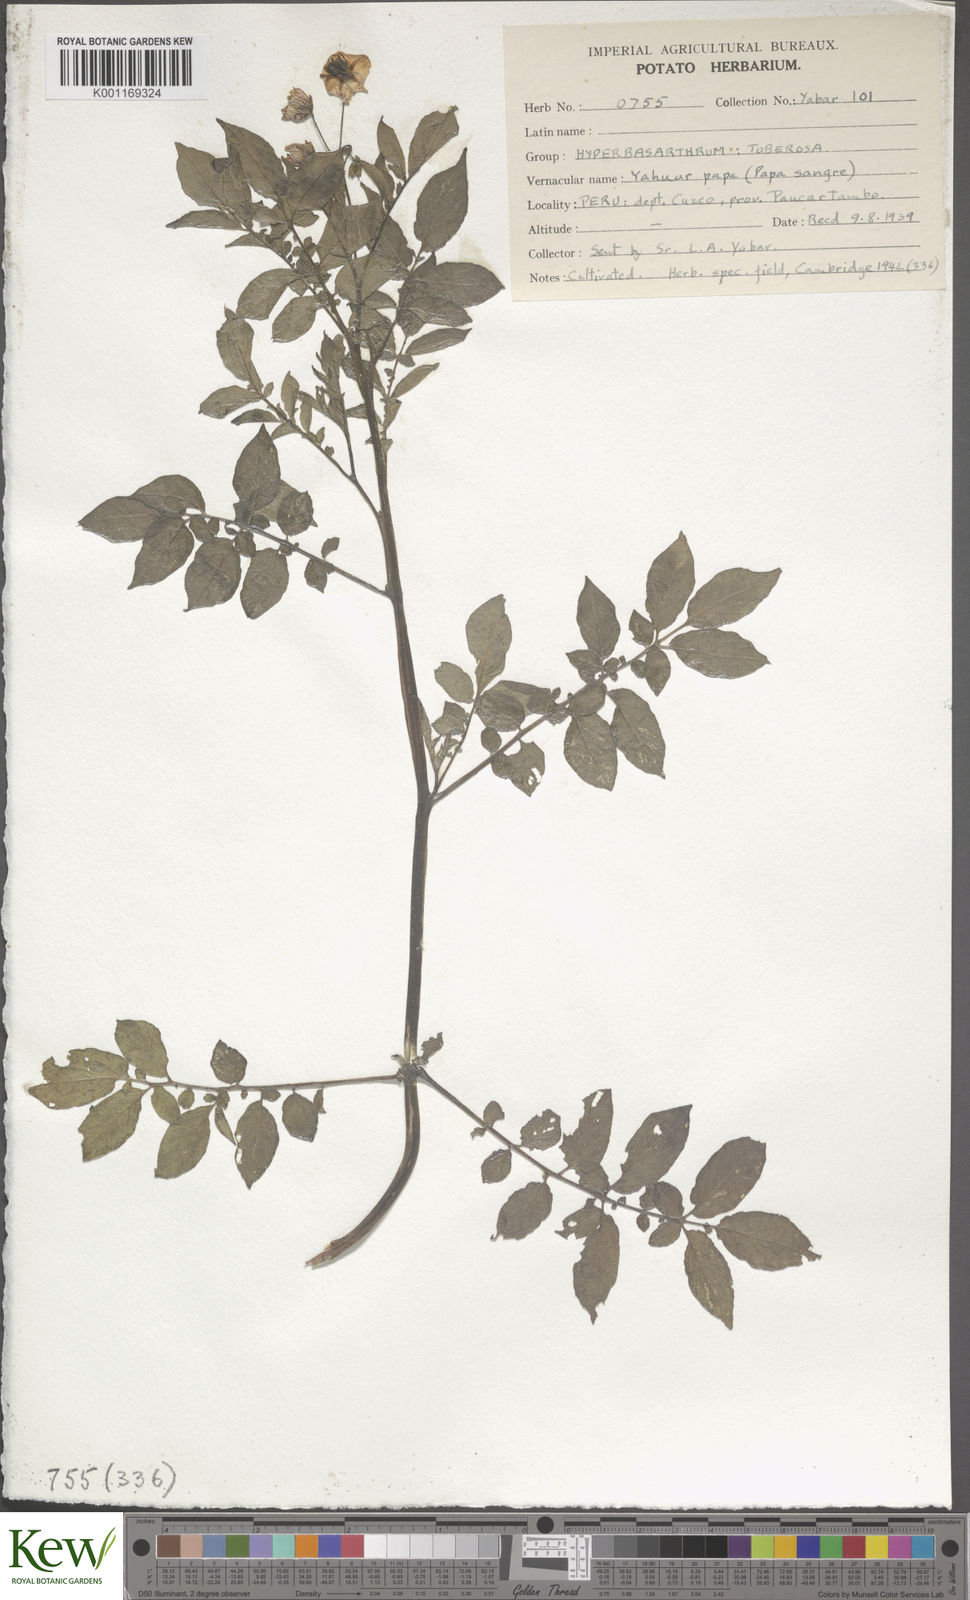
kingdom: Plantae
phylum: Tracheophyta
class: Magnoliopsida
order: Solanales
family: Solanaceae
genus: Solanum
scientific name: Solanum chaucha
